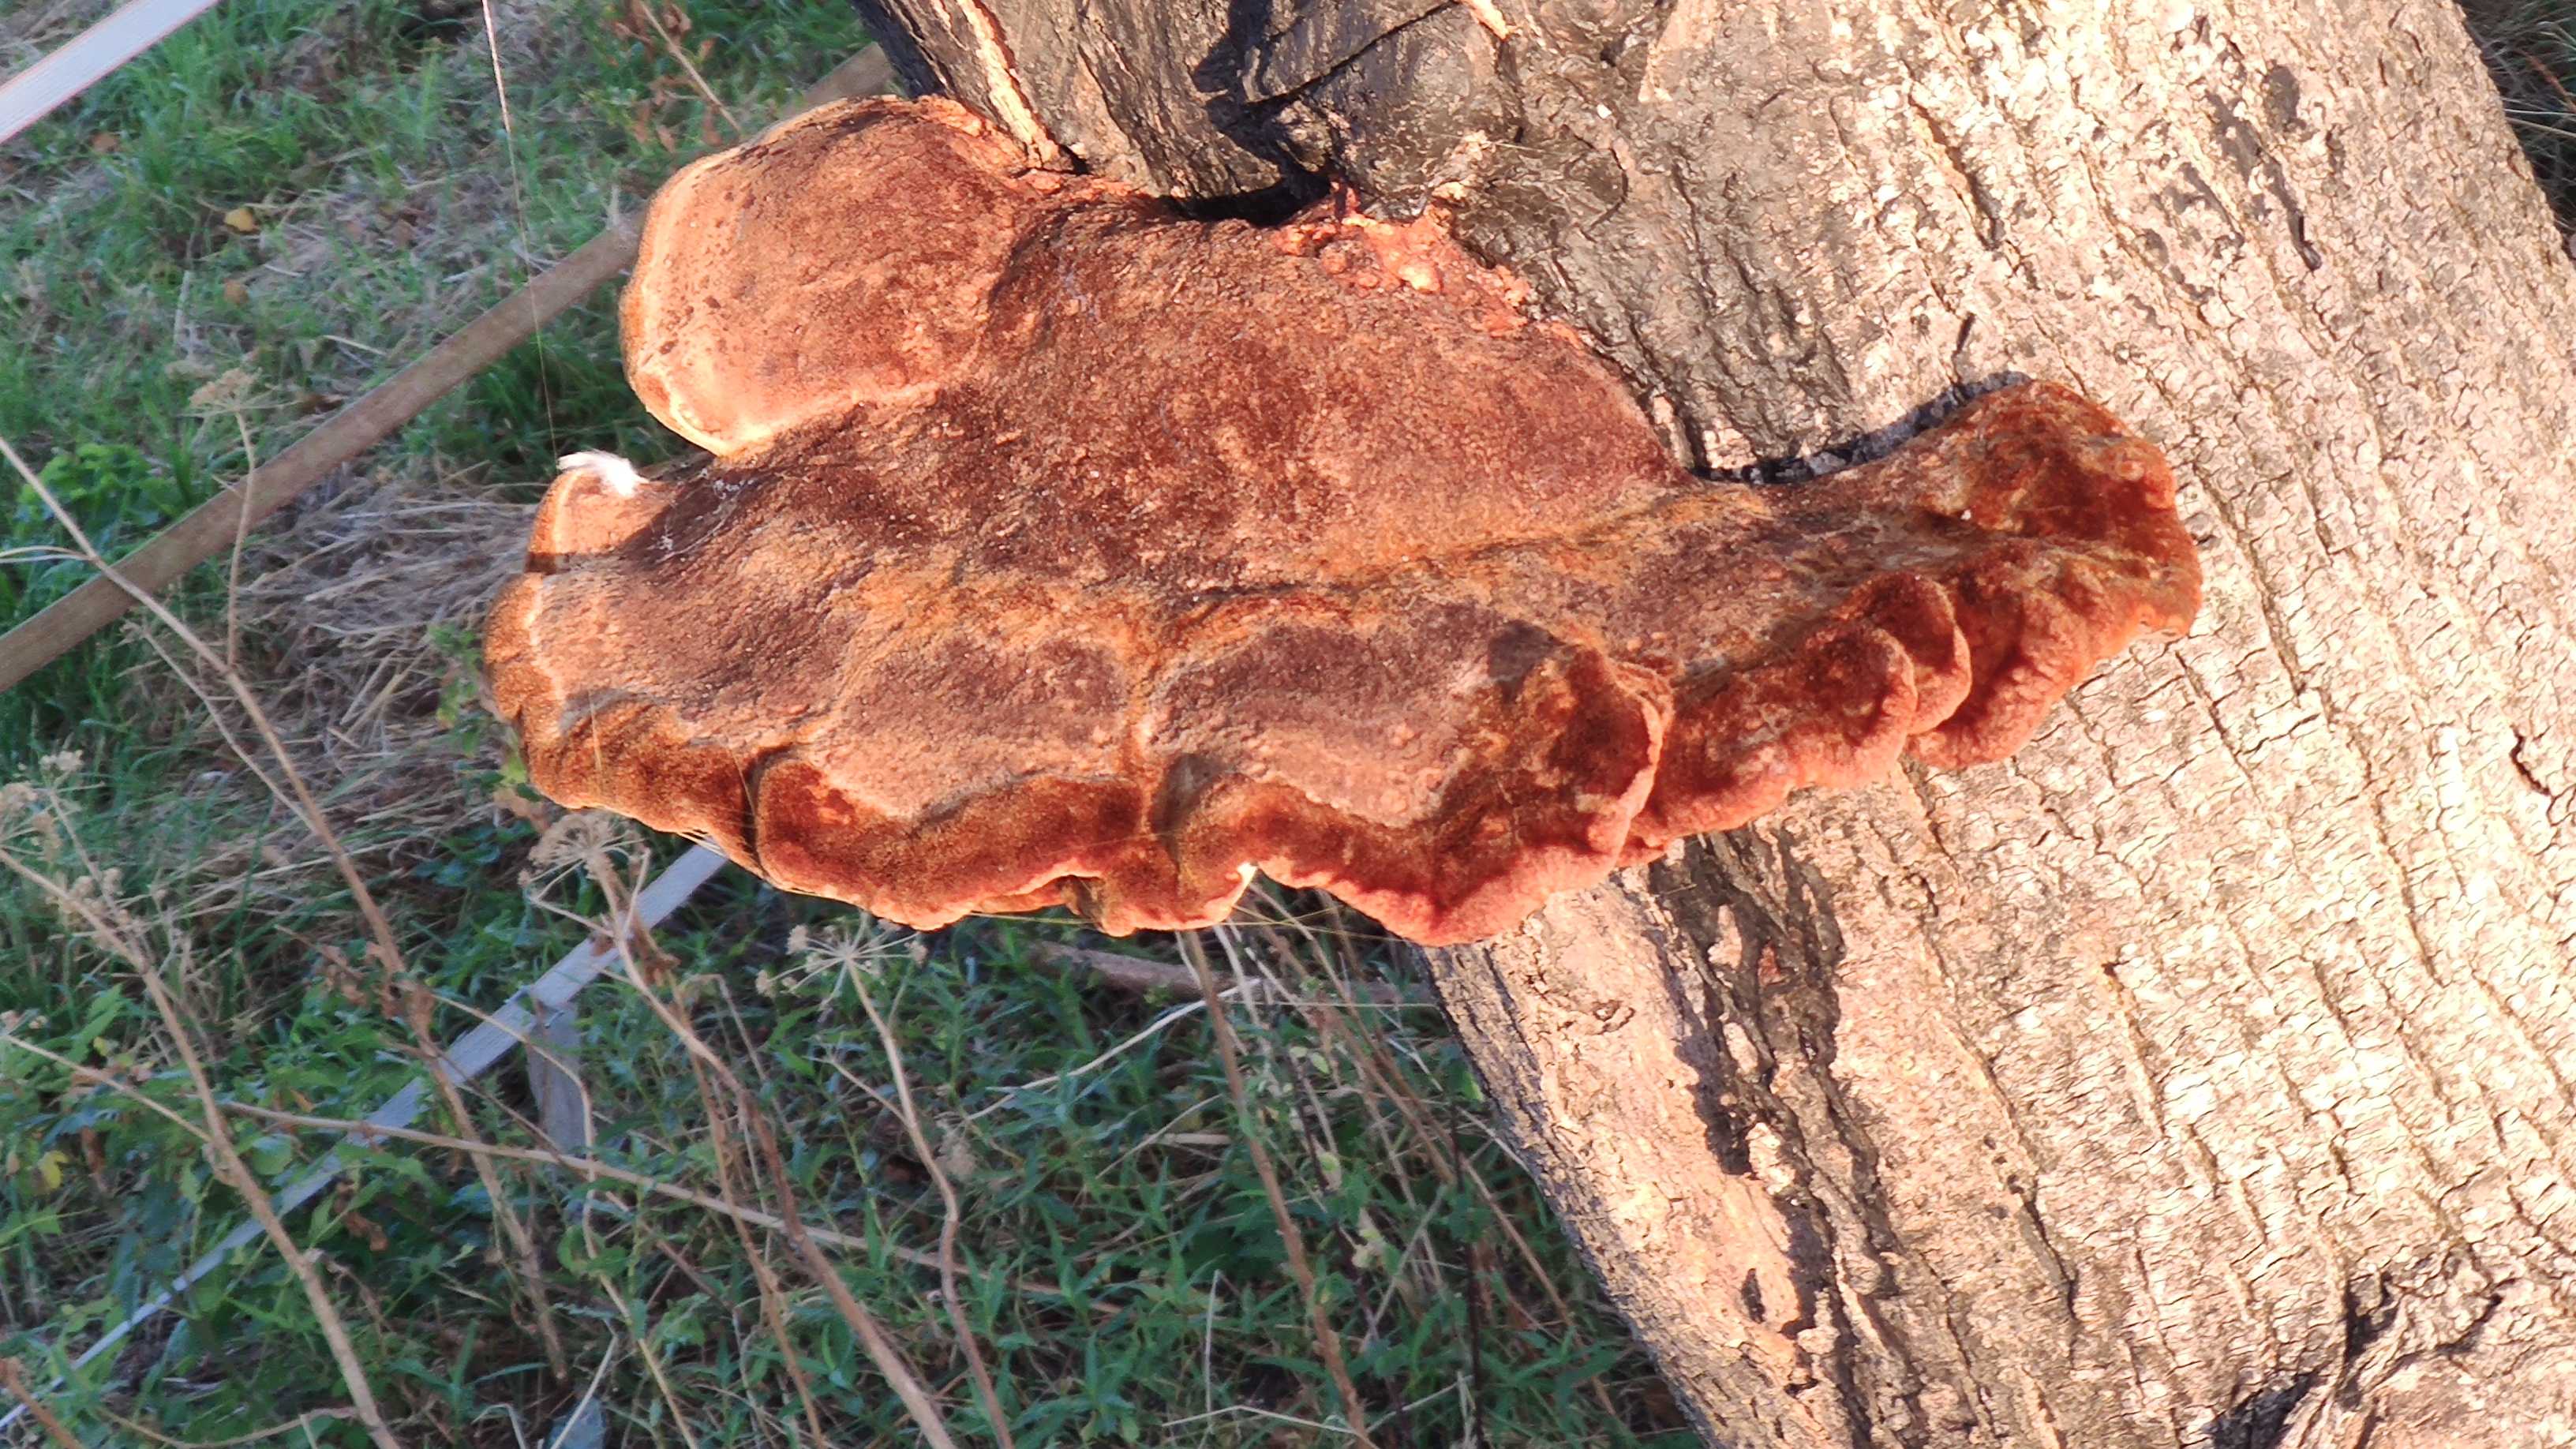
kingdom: Fungi
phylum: Basidiomycota
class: Agaricomycetes
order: Hymenochaetales
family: Hymenochaetaceae
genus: Inonotus
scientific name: Inonotus hispidus
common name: børstehåret spejlporesvamp
